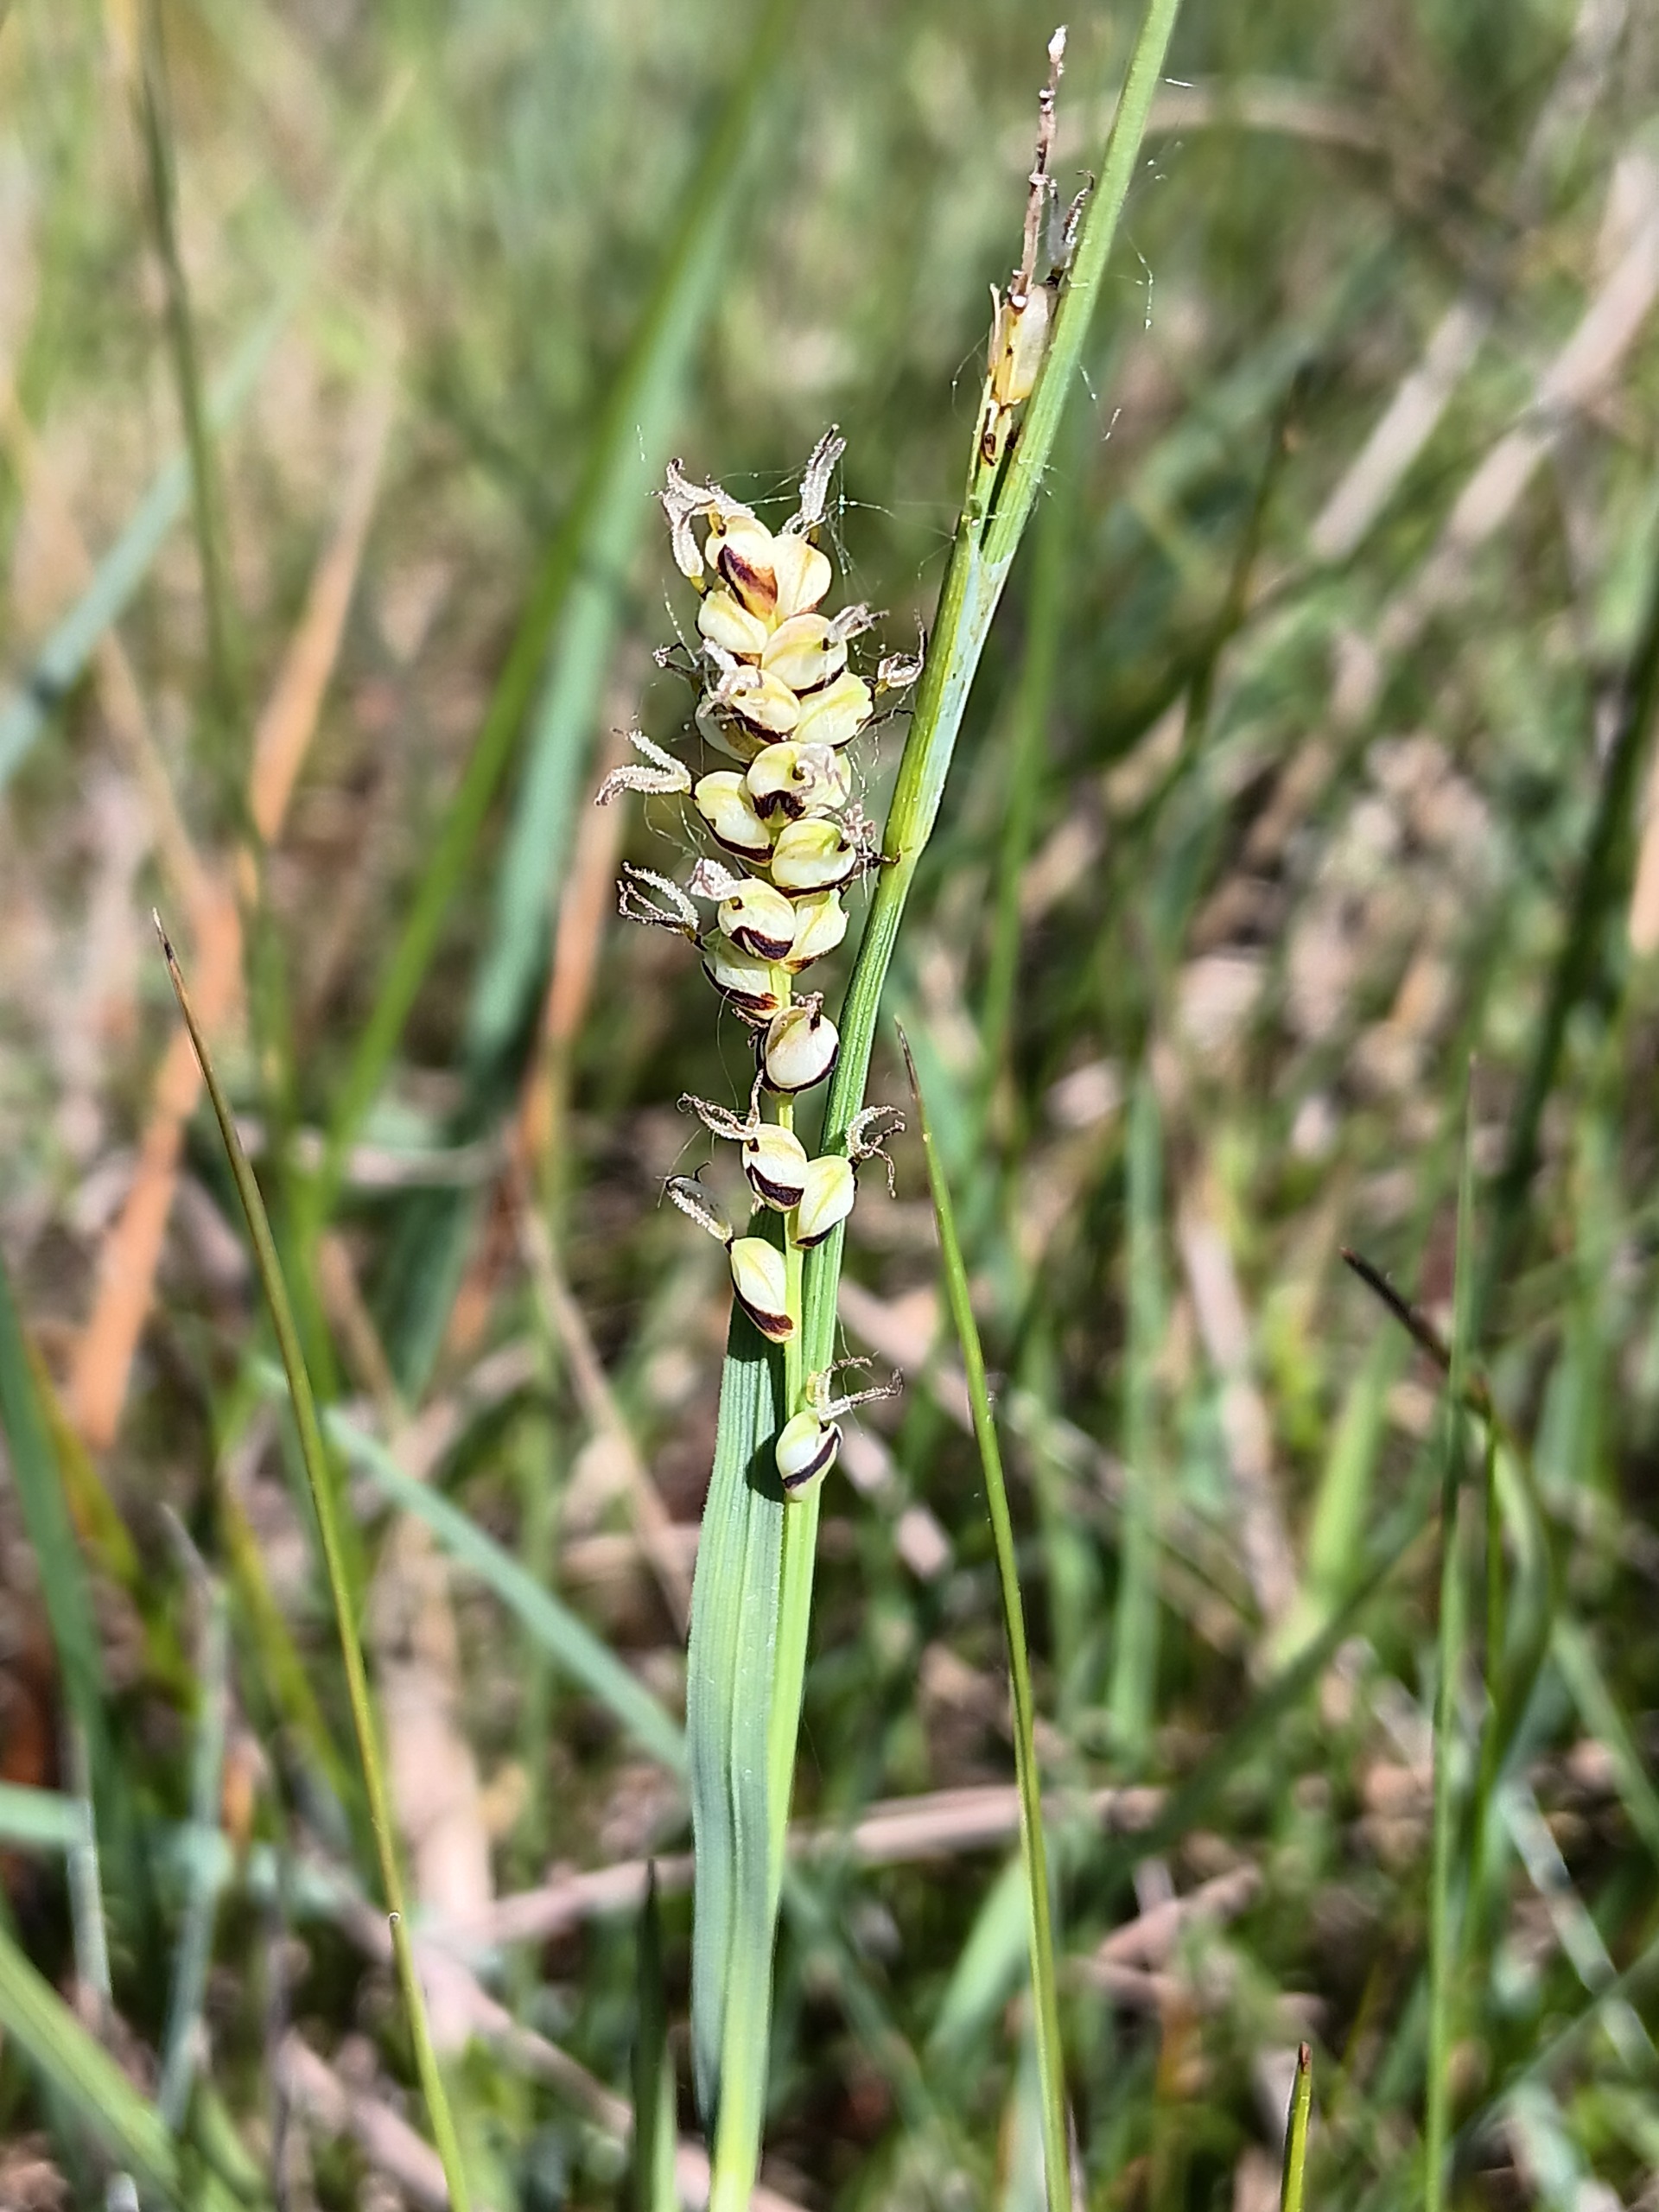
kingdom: Plantae
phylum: Tracheophyta
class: Liliopsida
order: Poales
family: Cyperaceae
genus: Carex
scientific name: Carex panicea
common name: Hirse-star
